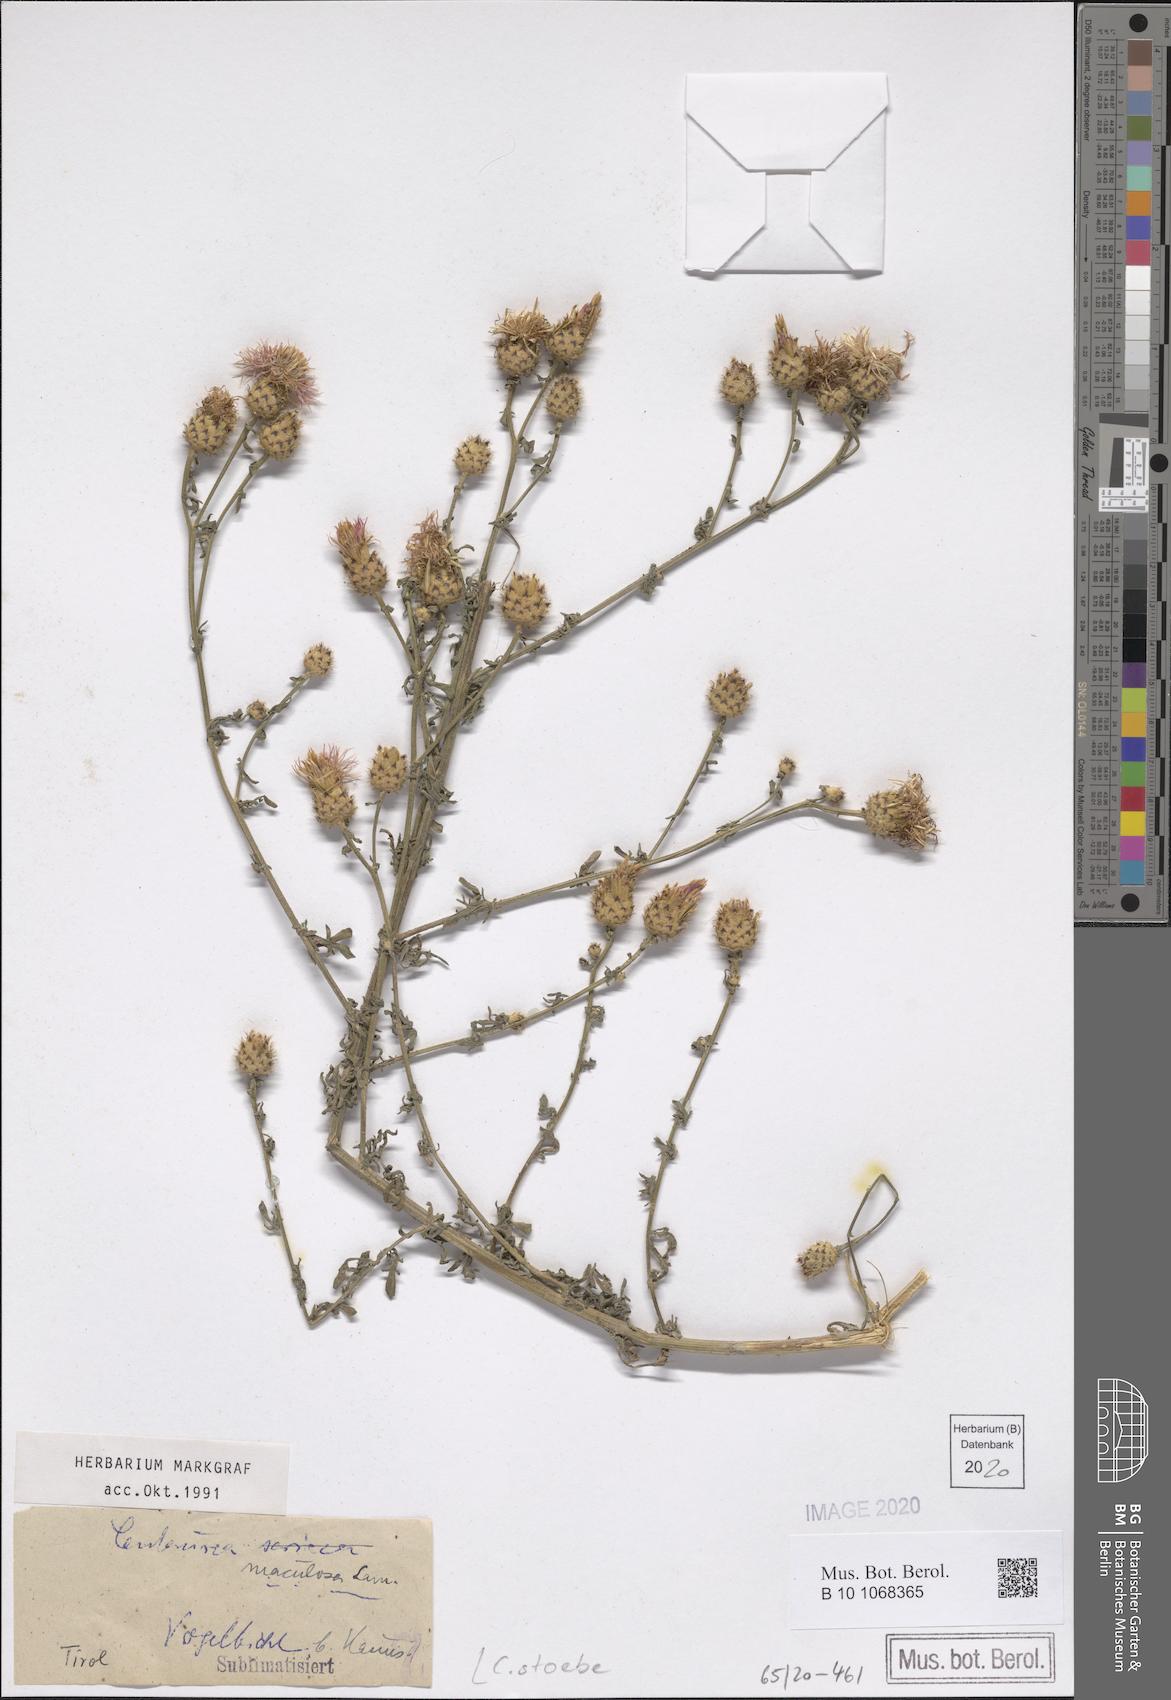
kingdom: Plantae
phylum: Tracheophyta
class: Magnoliopsida
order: Asterales
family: Asteraceae
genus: Centaurea
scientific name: Centaurea stoebe
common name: Spotted knapweed
